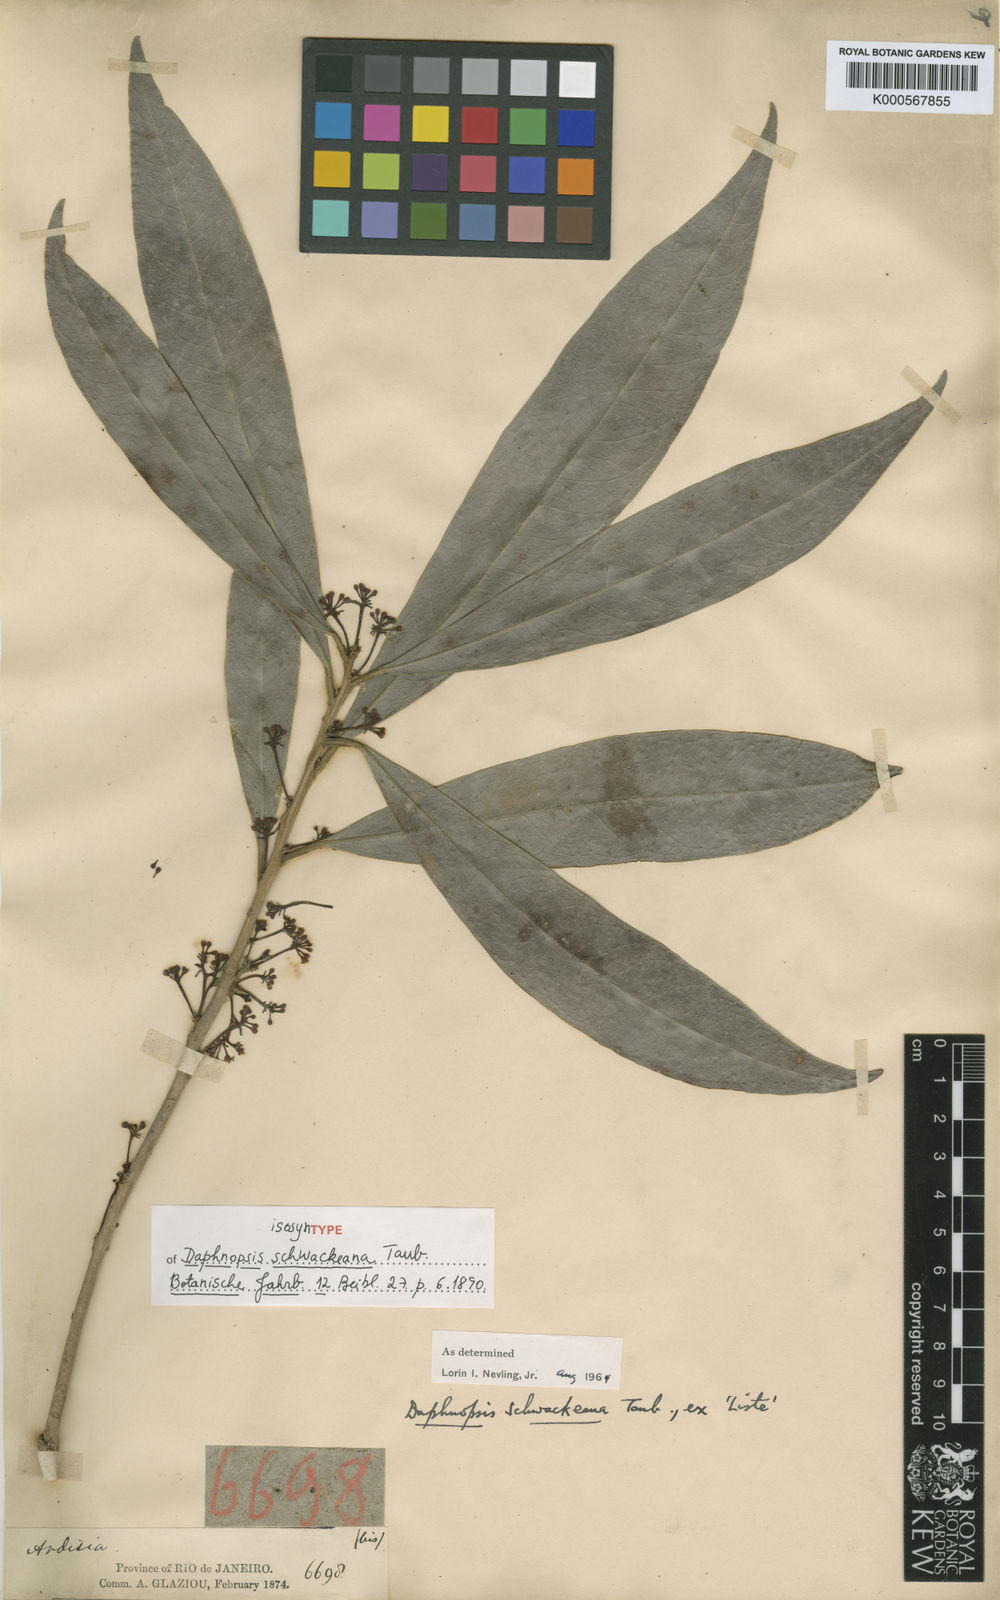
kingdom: Plantae
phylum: Tracheophyta
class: Magnoliopsida
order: Malvales
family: Thymelaeaceae
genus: Daphnopsis
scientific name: Daphnopsis schwackeana
